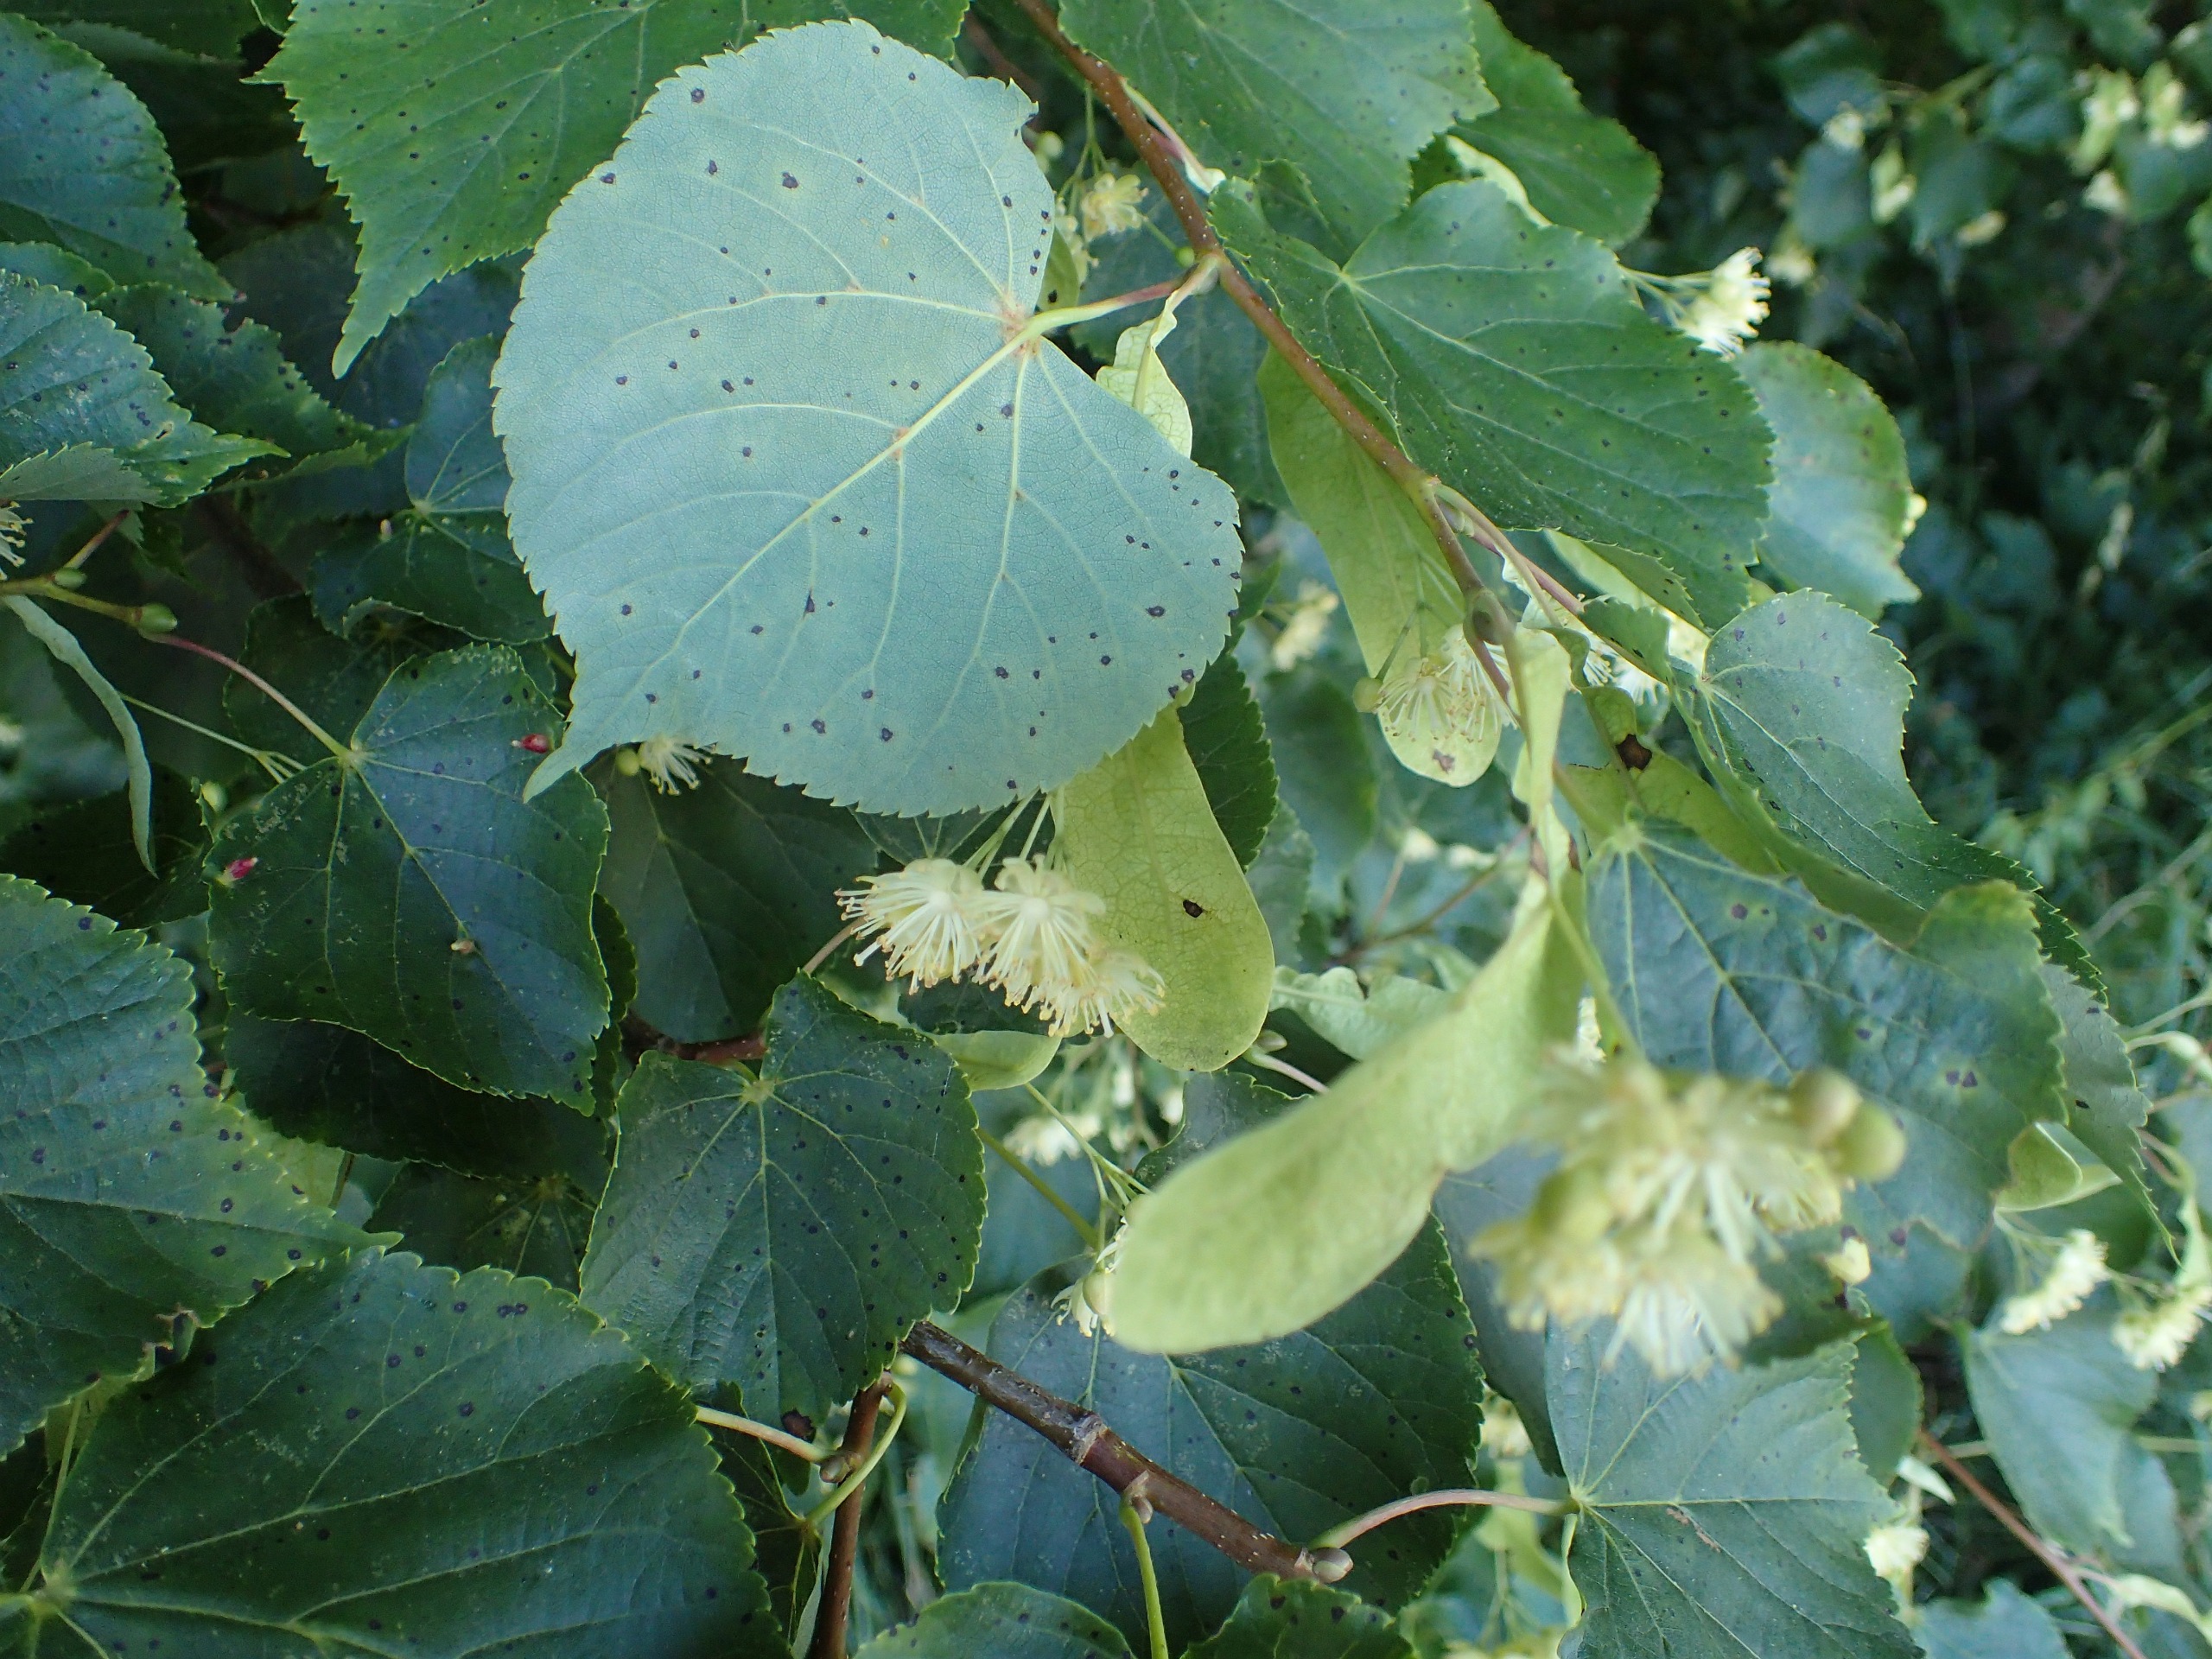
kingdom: Plantae
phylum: Tracheophyta
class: Magnoliopsida
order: Malvales
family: Malvaceae
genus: Tilia
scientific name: Tilia cordata
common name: Småbladet lind
